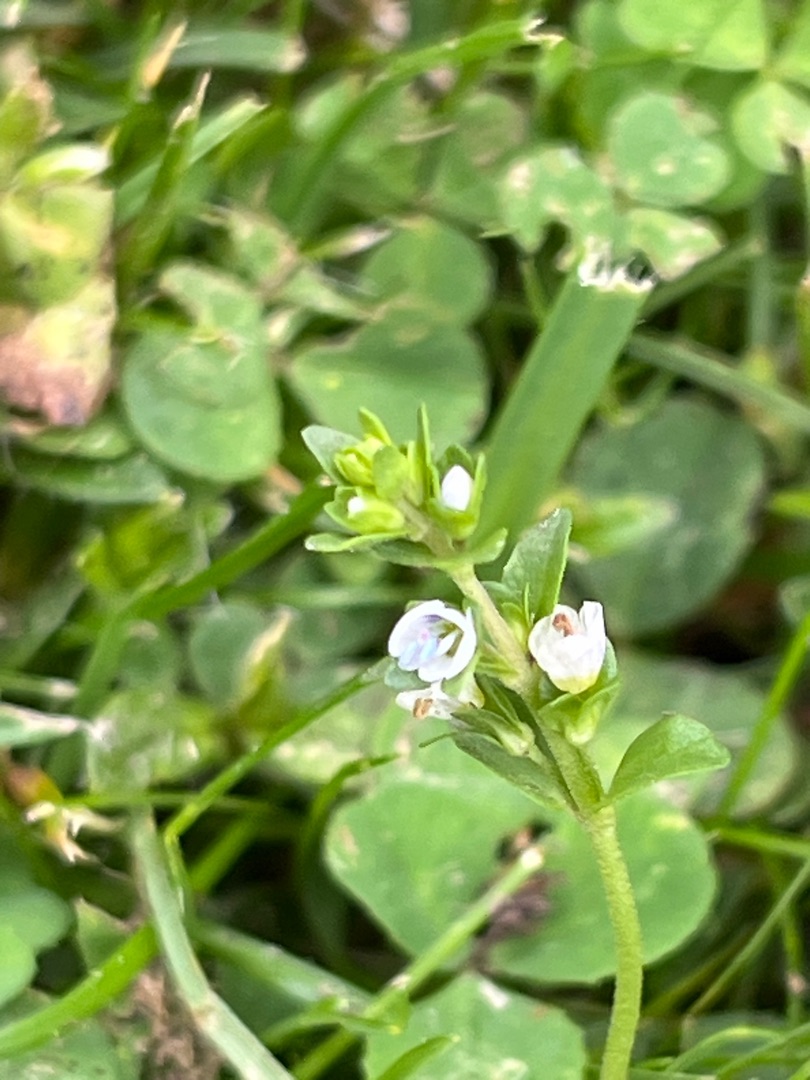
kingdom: Plantae
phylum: Tracheophyta
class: Magnoliopsida
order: Lamiales
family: Plantaginaceae
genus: Veronica
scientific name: Veronica serpyllifolia
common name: Glat ærenpris
